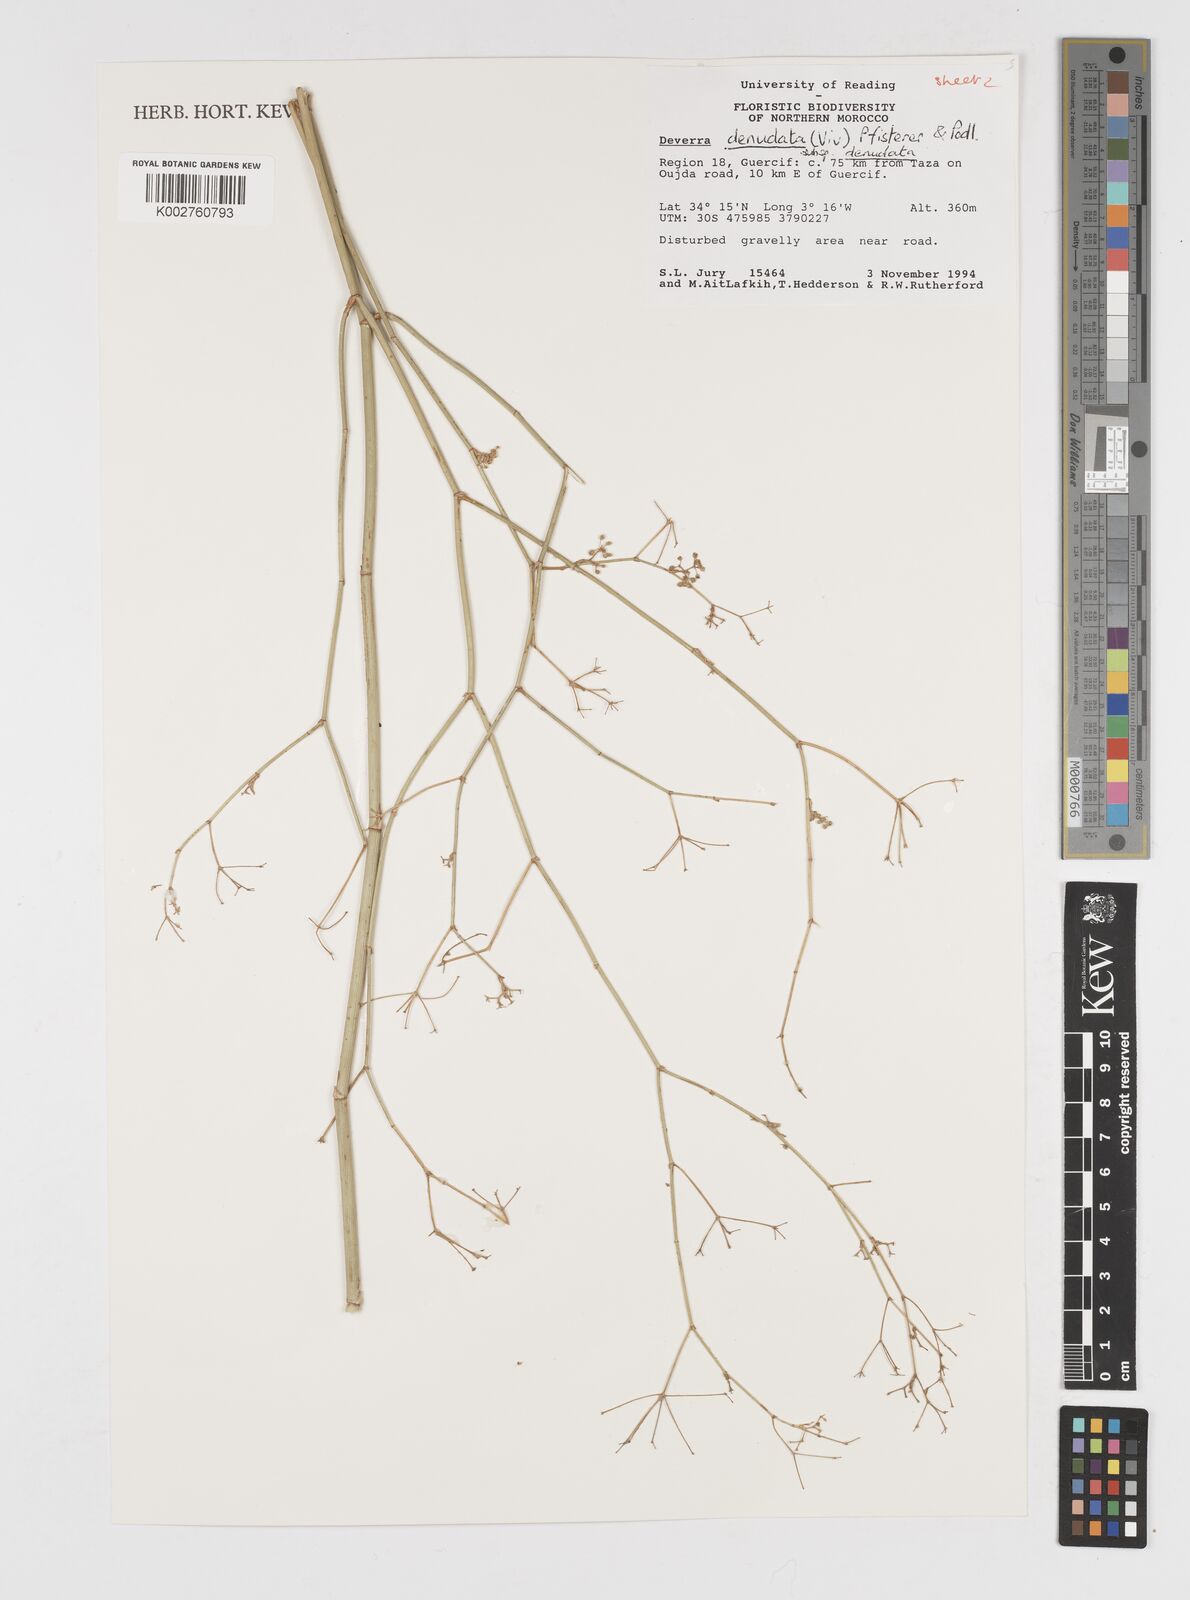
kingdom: Plantae
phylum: Tracheophyta
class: Magnoliopsida
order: Apiales
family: Apiaceae
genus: Deverra
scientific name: Deverra denudata
